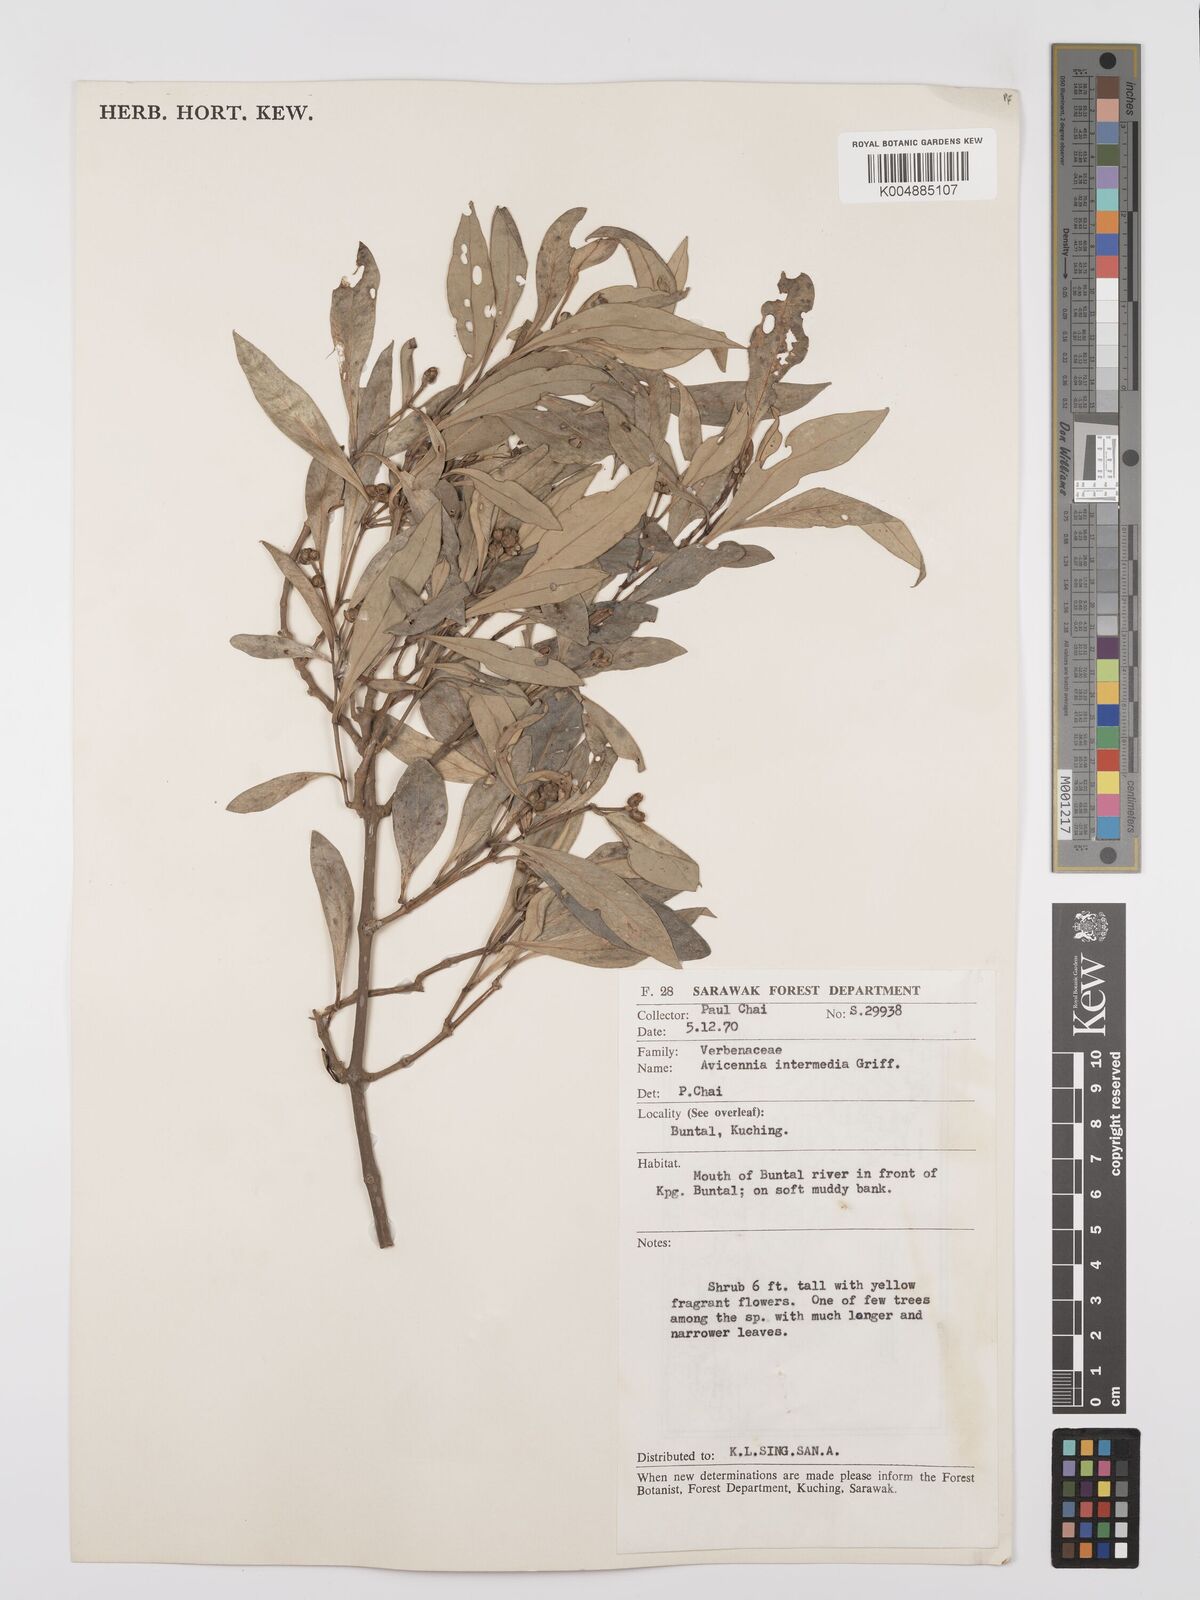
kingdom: Plantae
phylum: Tracheophyta
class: Magnoliopsida
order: Lamiales
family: Acanthaceae
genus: Avicennia
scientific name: Avicennia marina
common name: Gray mangrove
